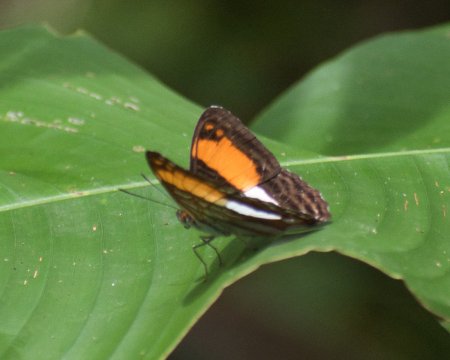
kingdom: Animalia
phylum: Arthropoda
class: Insecta
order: Lepidoptera
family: Nymphalidae
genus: Limenitis
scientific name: Limenitis cocala
